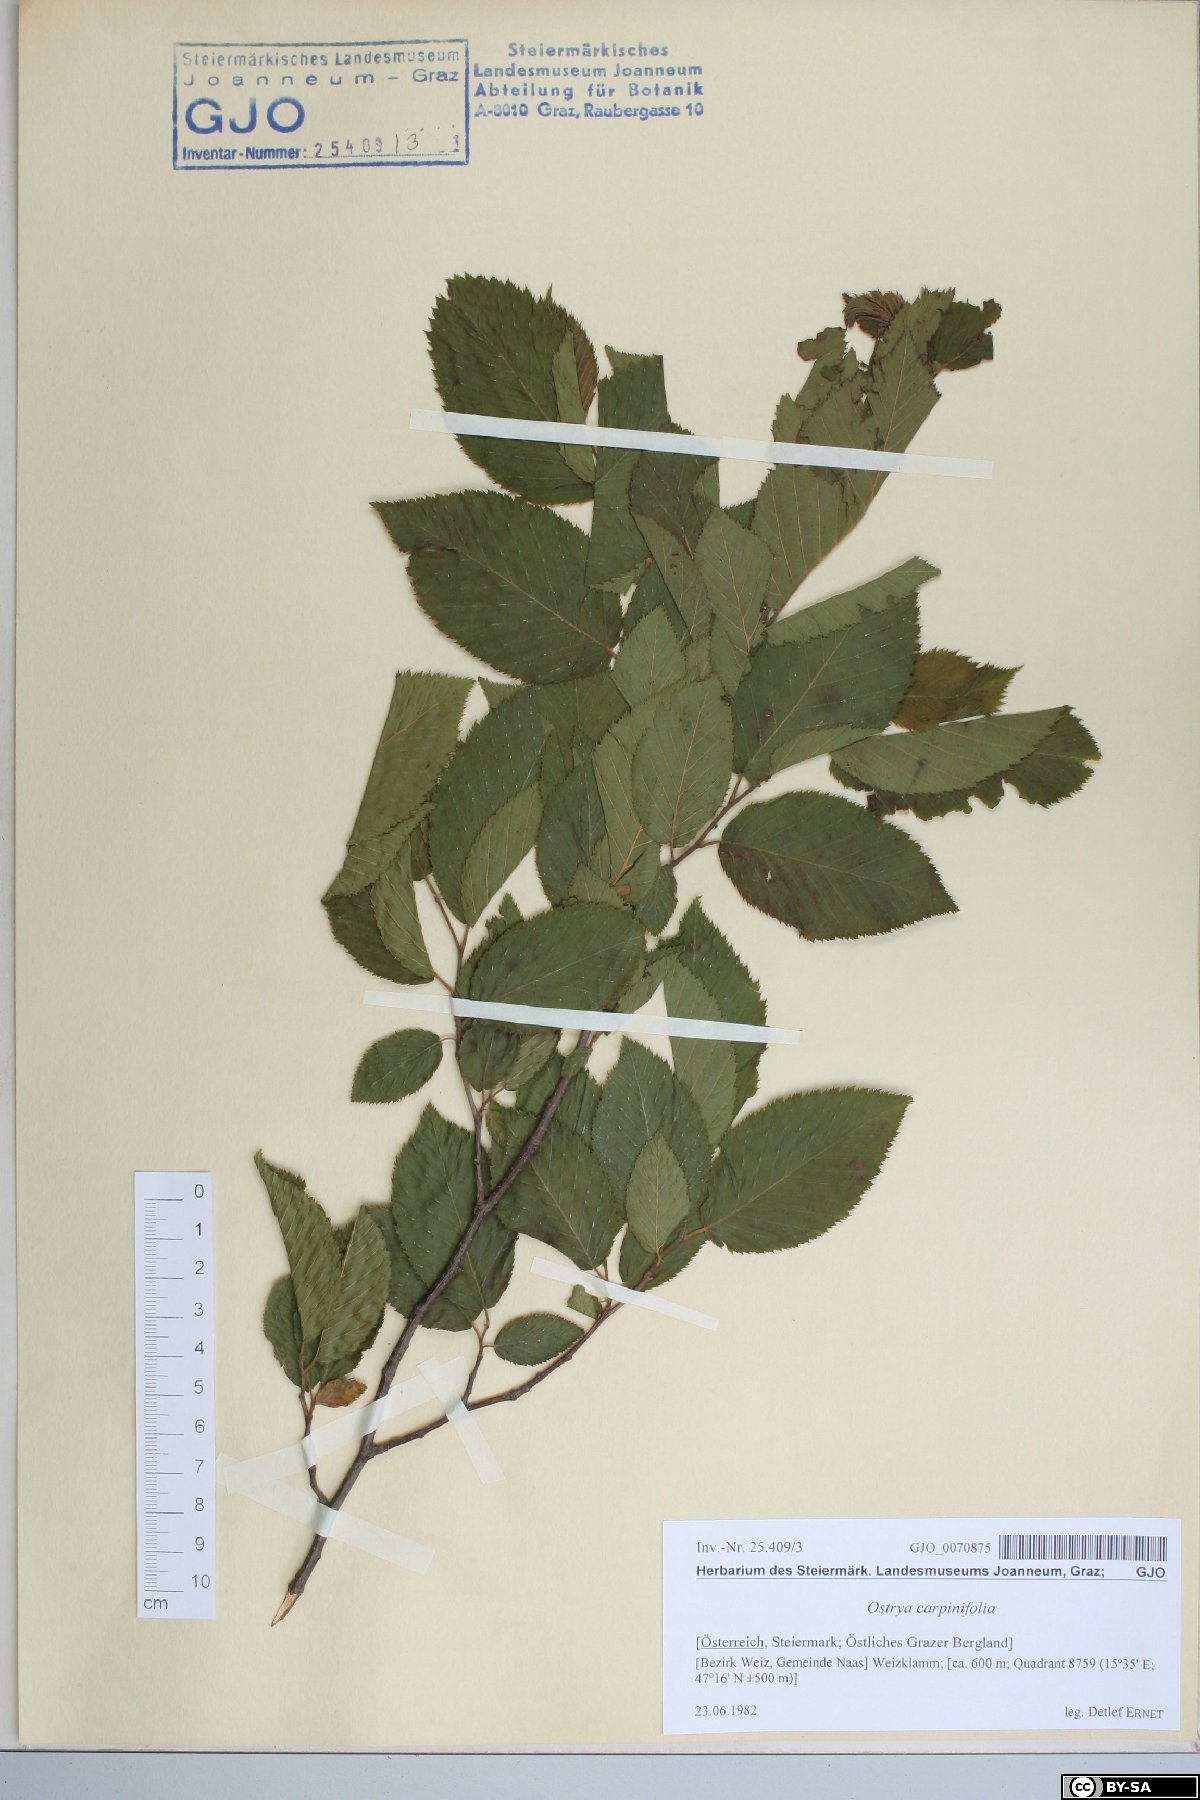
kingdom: Plantae
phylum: Tracheophyta
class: Magnoliopsida
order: Fagales
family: Betulaceae
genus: Ostrya
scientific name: Ostrya carpinifolia
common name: European hop-hornbeam
